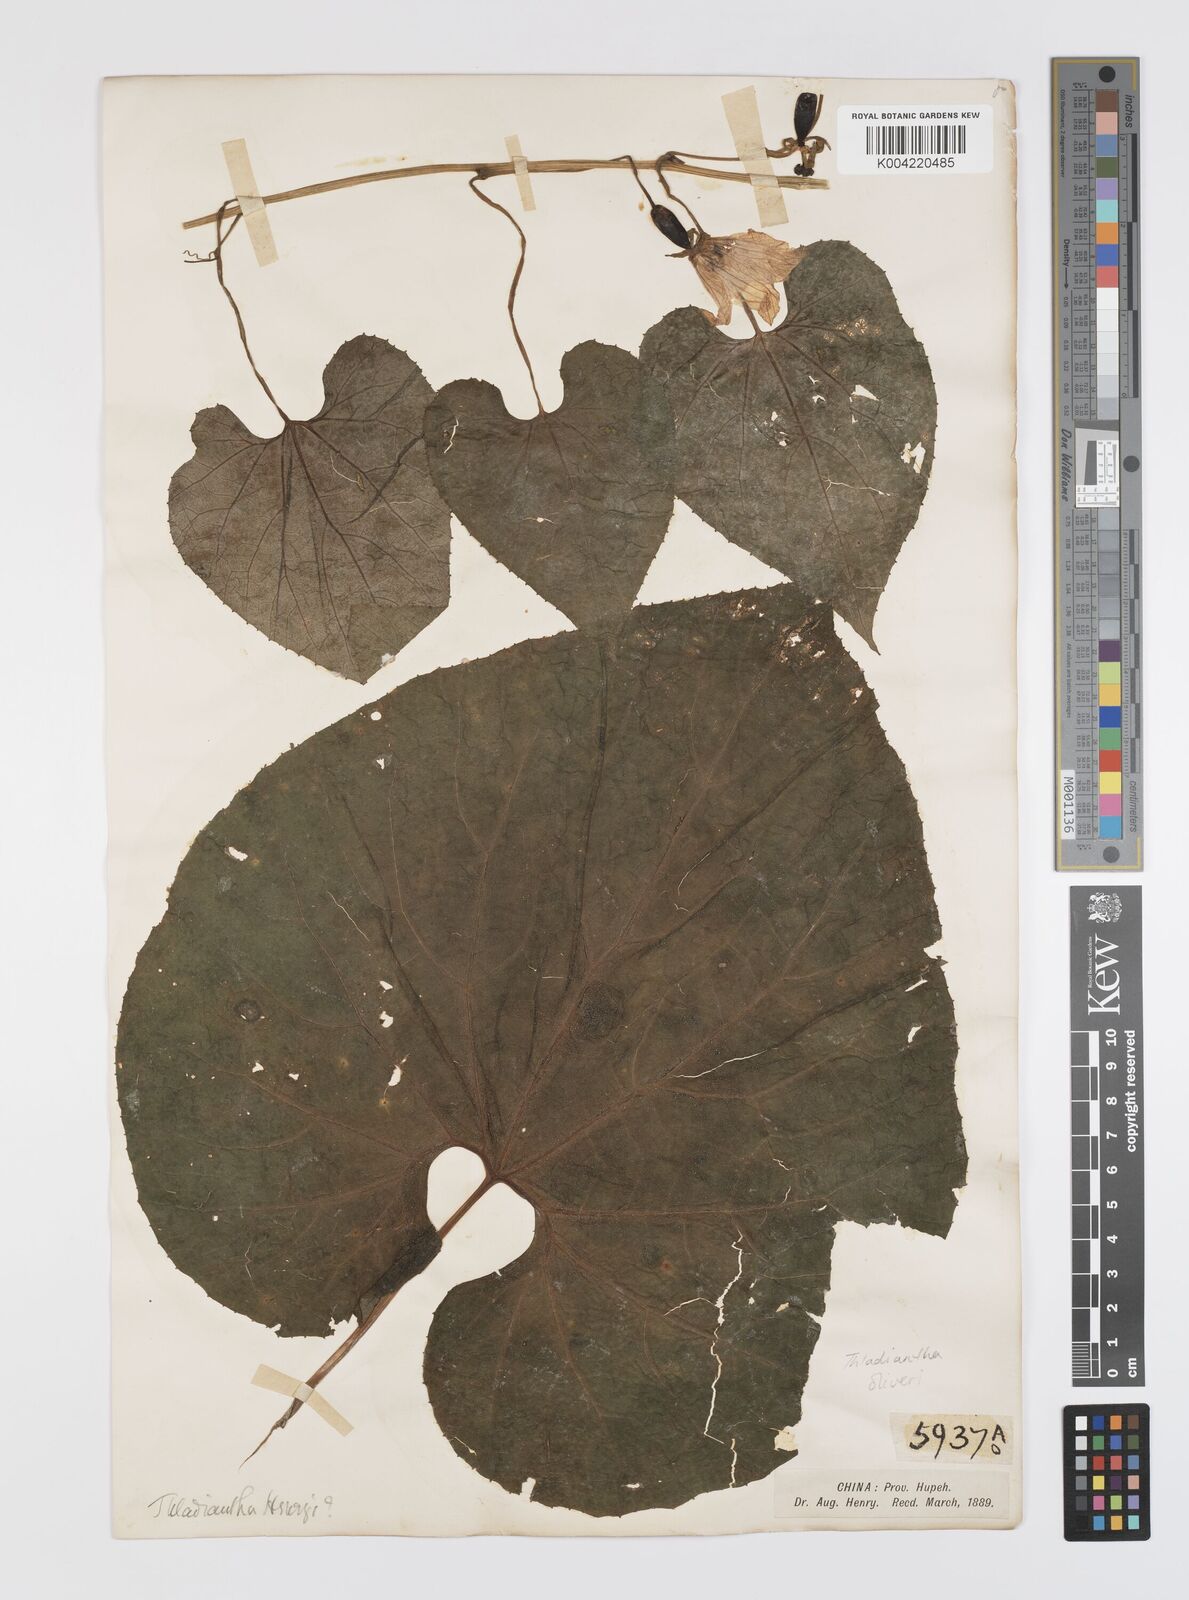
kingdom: Plantae
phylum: Tracheophyta
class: Magnoliopsida
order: Cucurbitales
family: Cucurbitaceae
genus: Thladiantha
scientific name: Thladiantha oliveri
